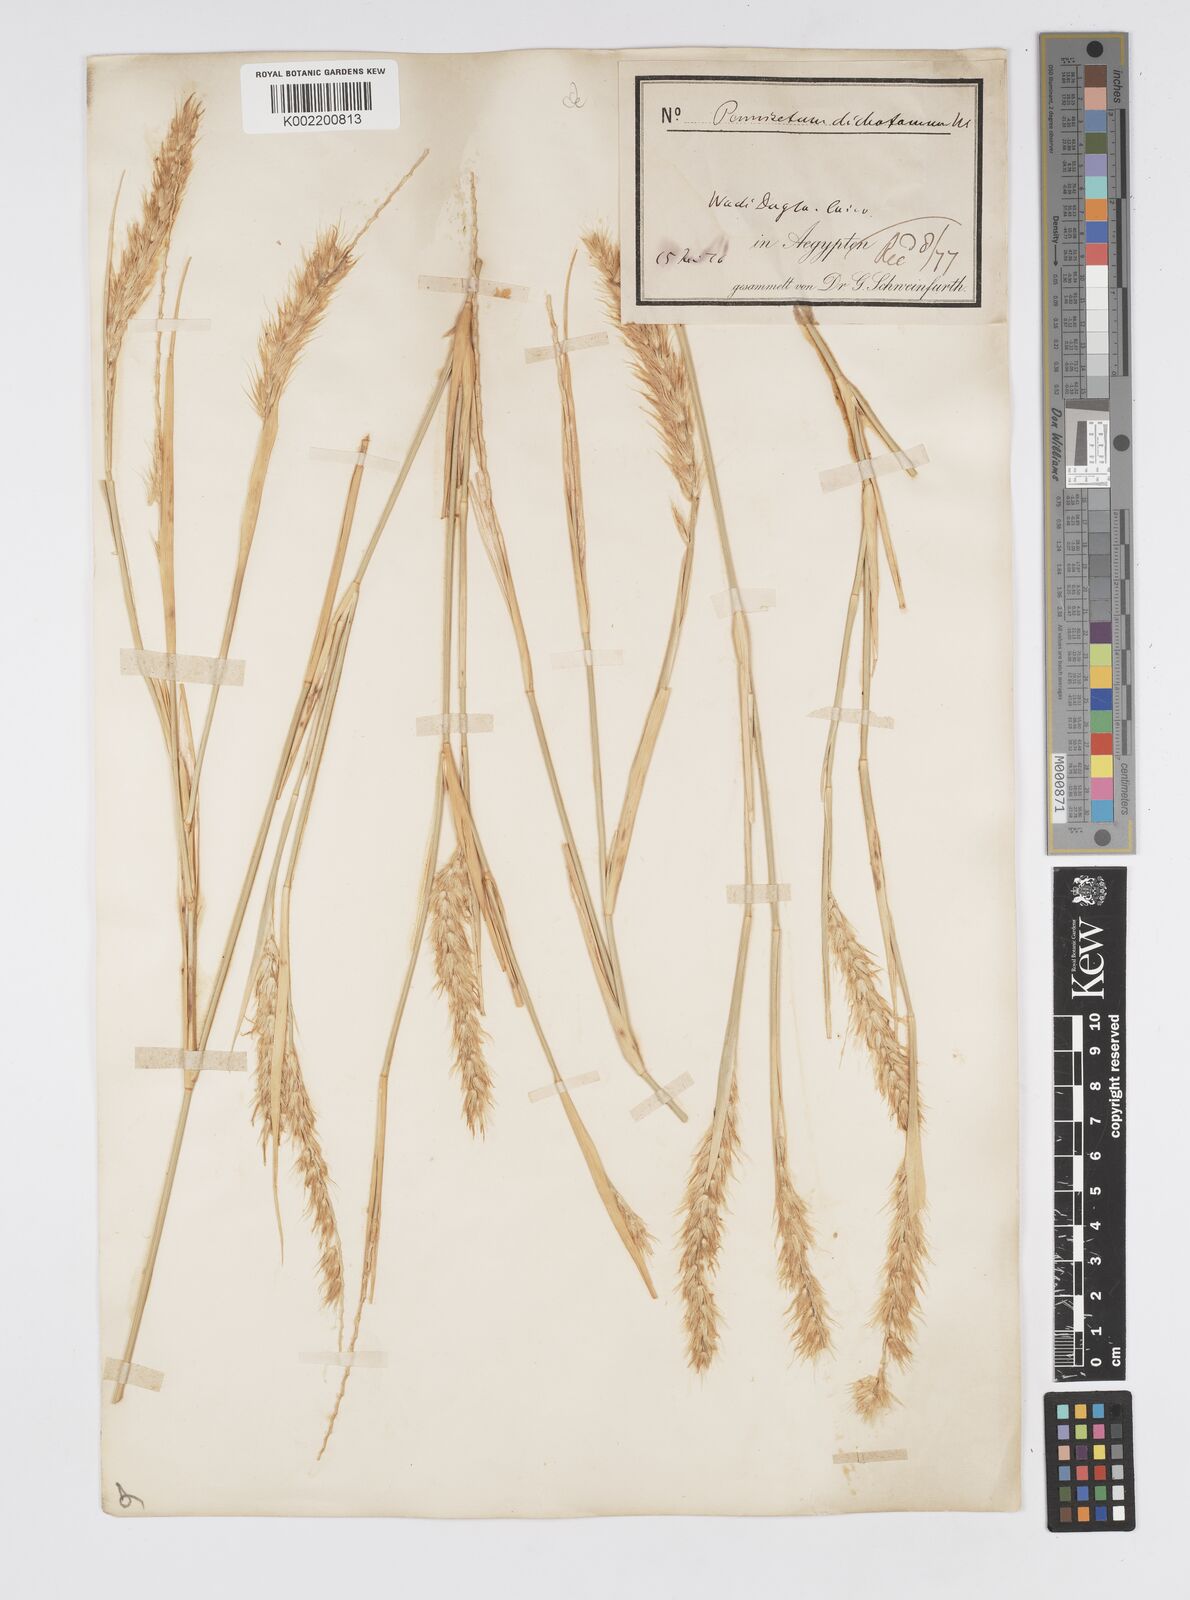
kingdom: Plantae
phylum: Tracheophyta
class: Liliopsida
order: Poales
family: Poaceae
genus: Cenchrus
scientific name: Cenchrus divisus
